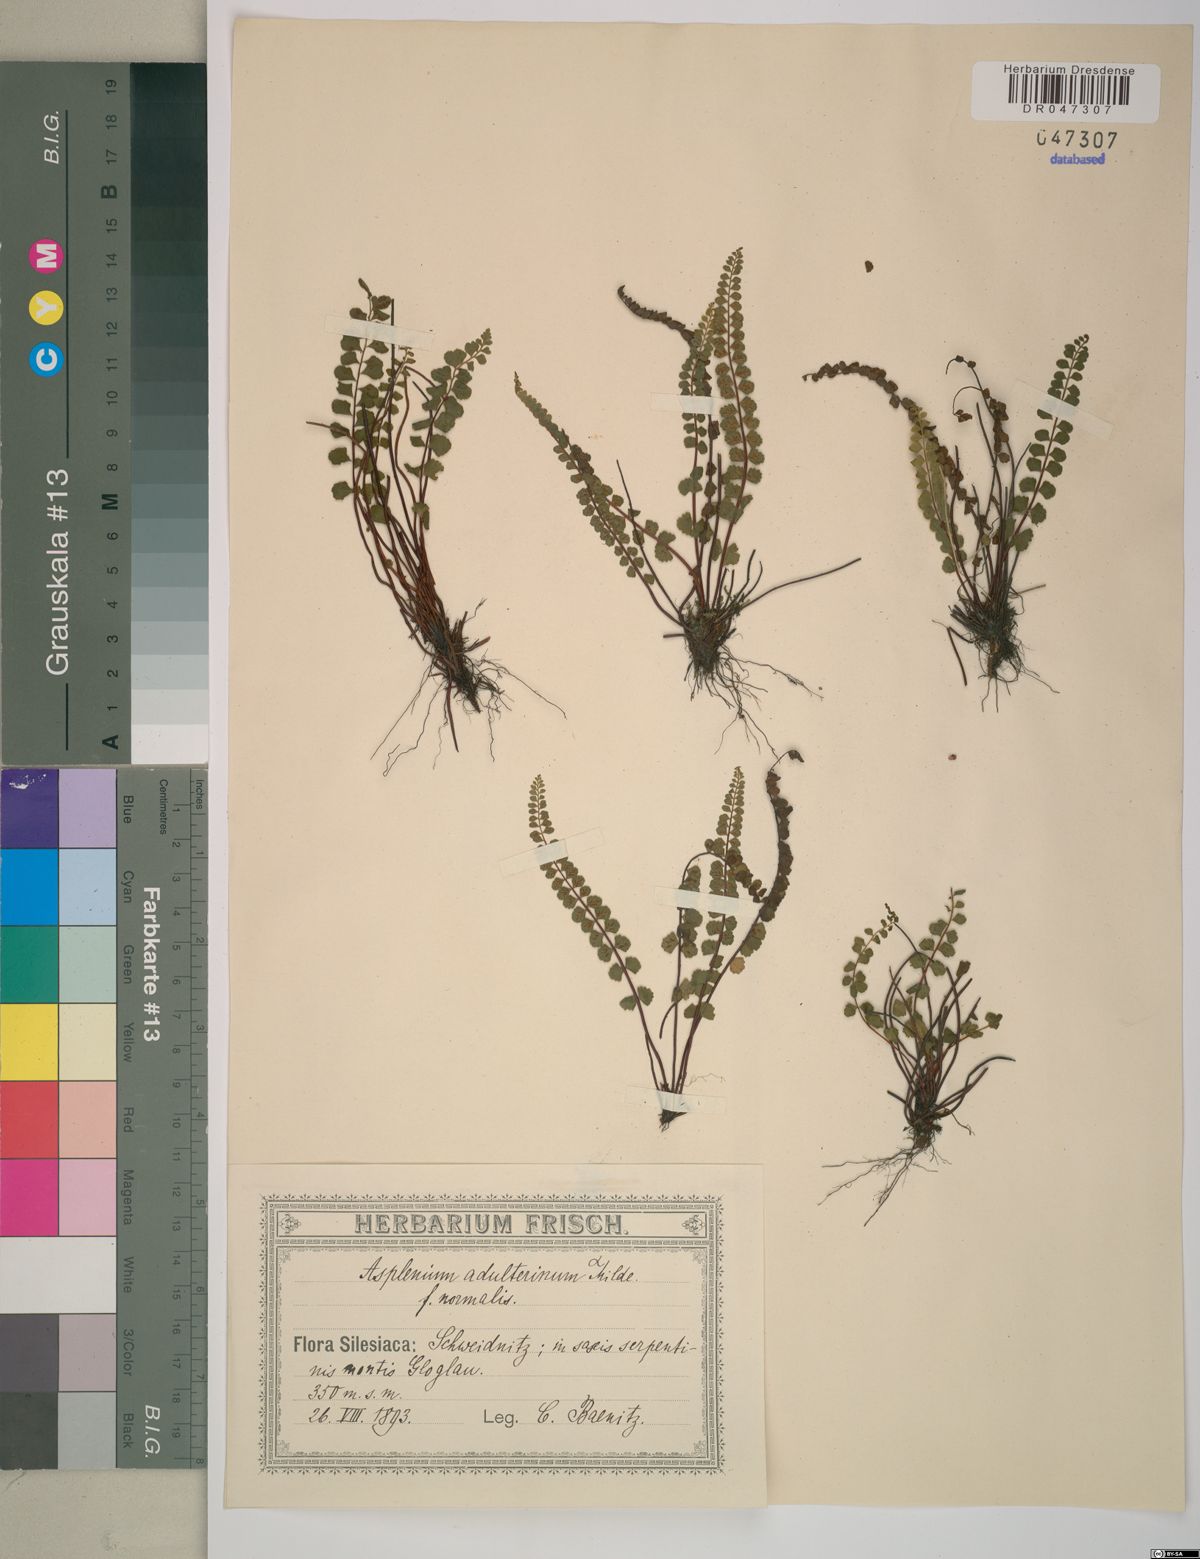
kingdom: Plantae
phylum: Tracheophyta
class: Polypodiopsida
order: Polypodiales
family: Aspleniaceae
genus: Asplenium
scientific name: Asplenium adulterinum
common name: Adulterated spleenwort
